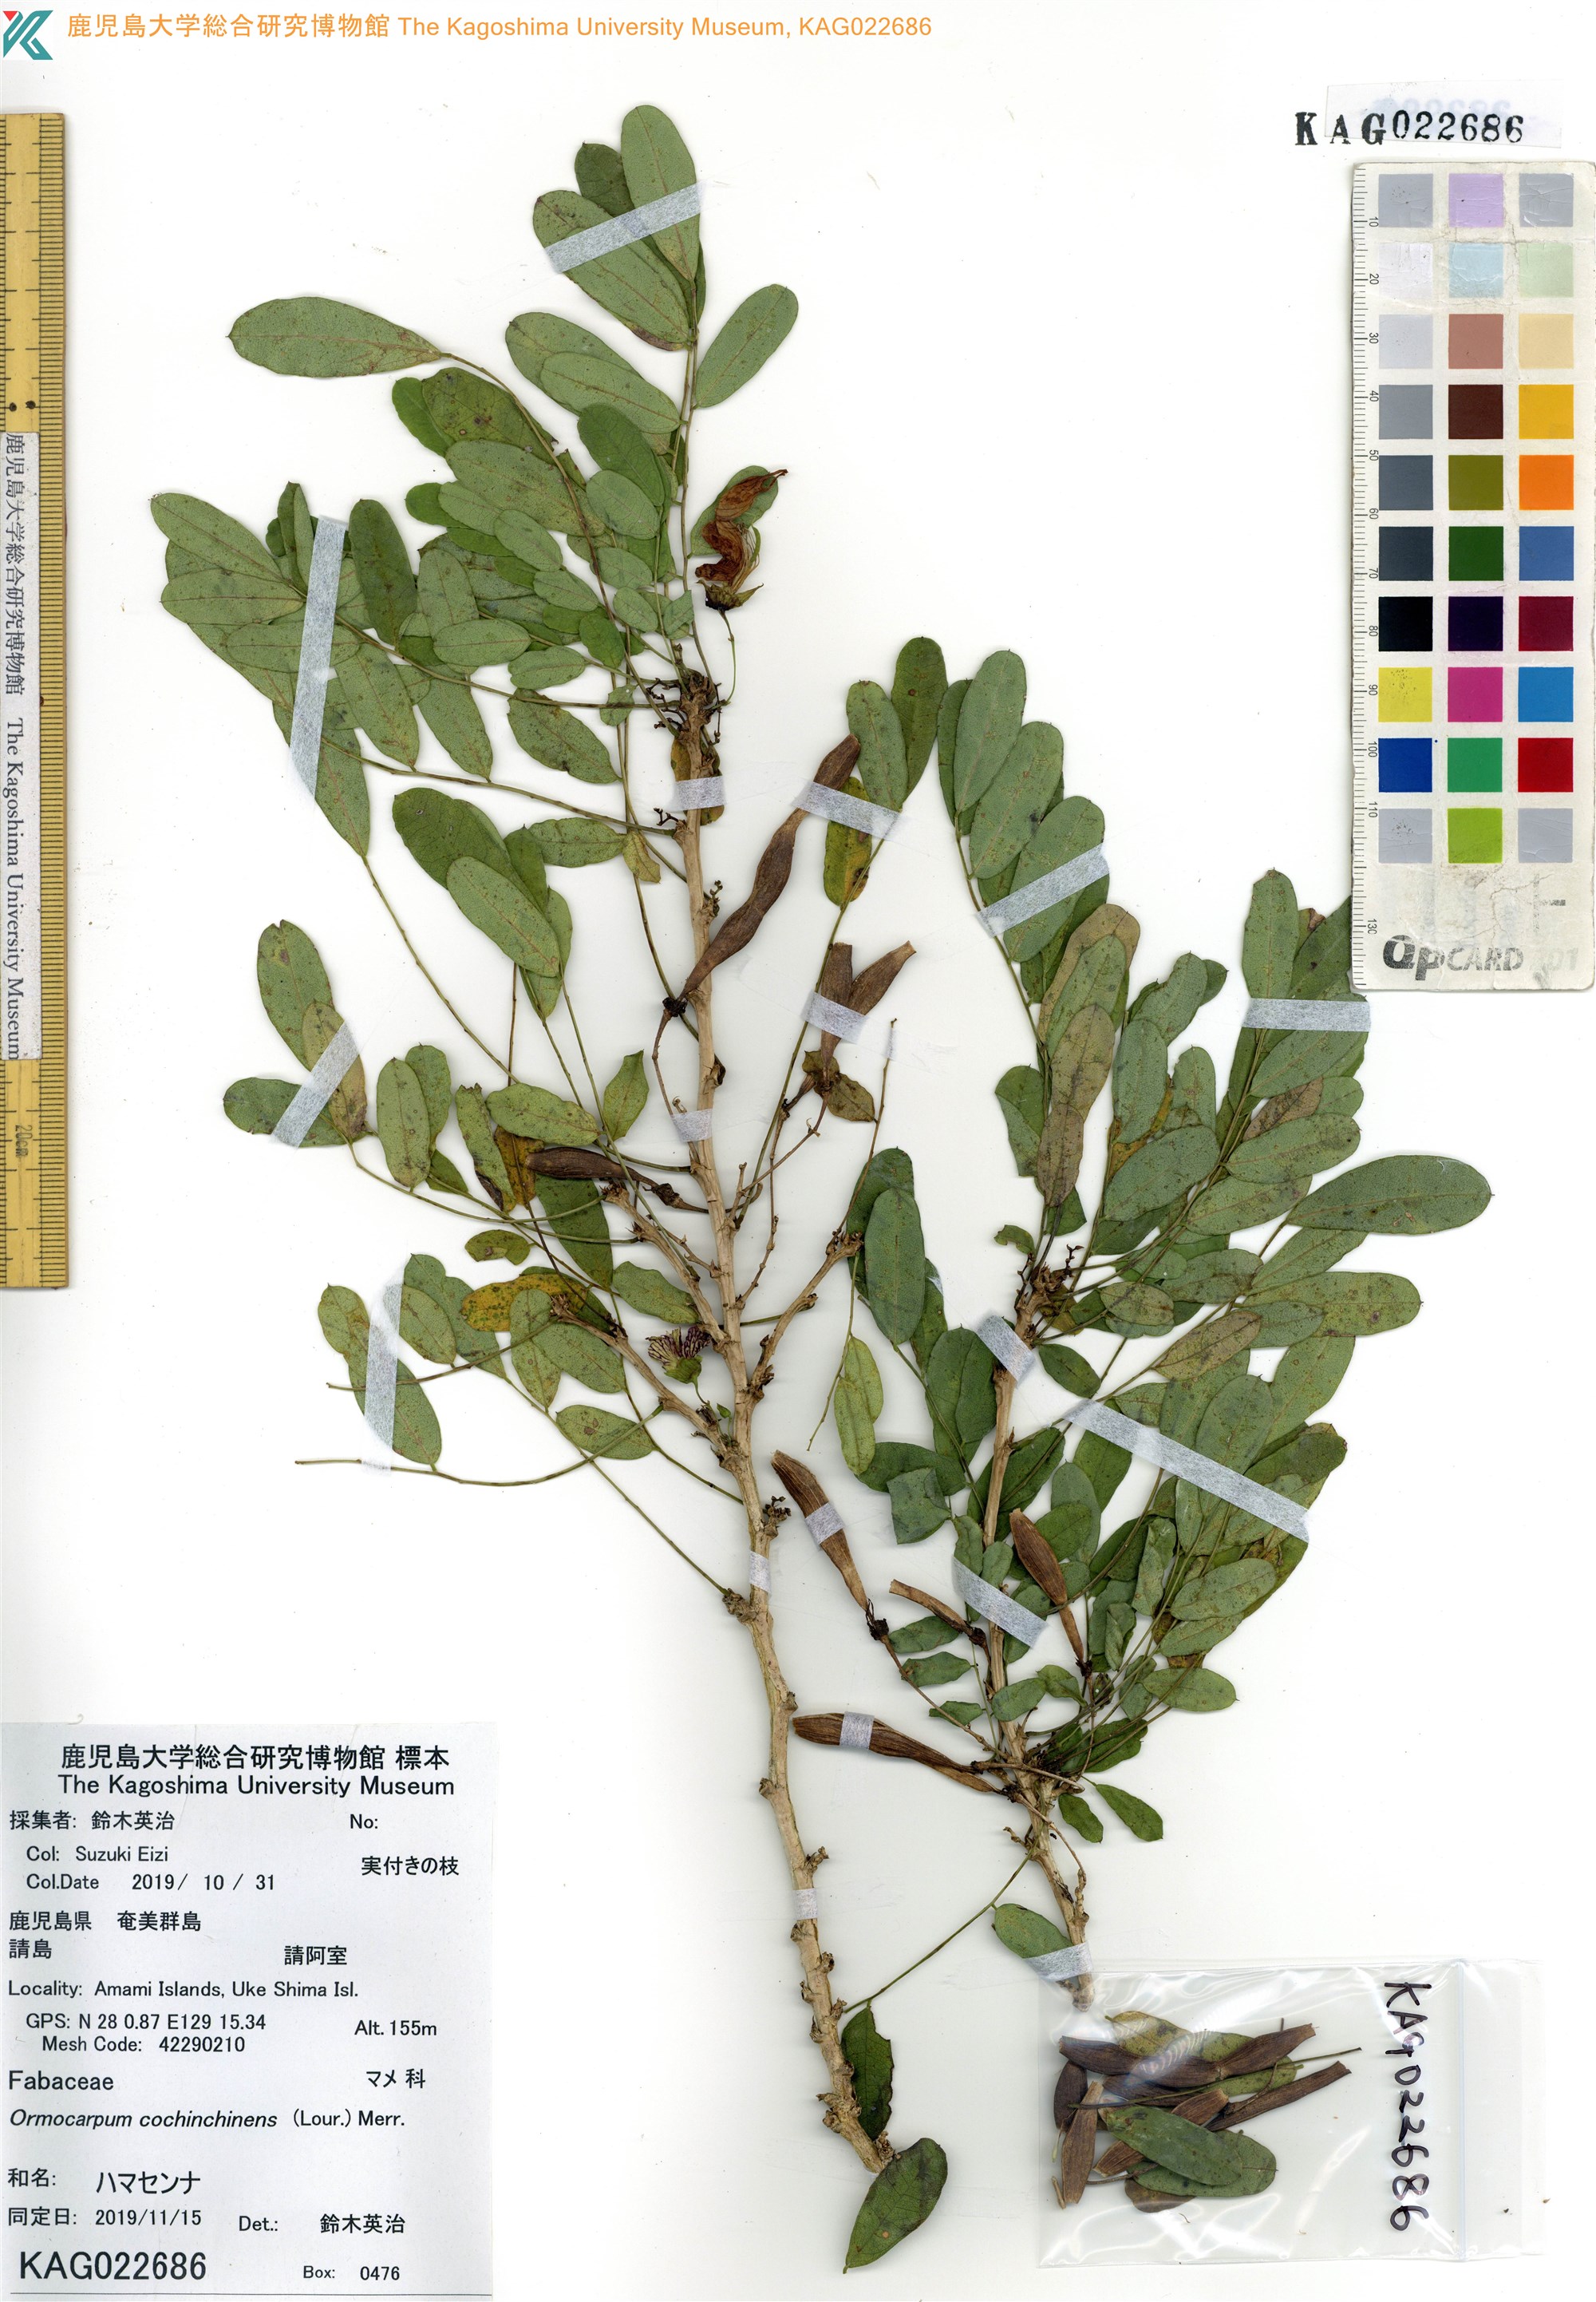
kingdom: Plantae
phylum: Tracheophyta
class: Magnoliopsida
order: Fabales
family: Fabaceae
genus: Ormocarpum
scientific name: Ormocarpum cochinchinense
